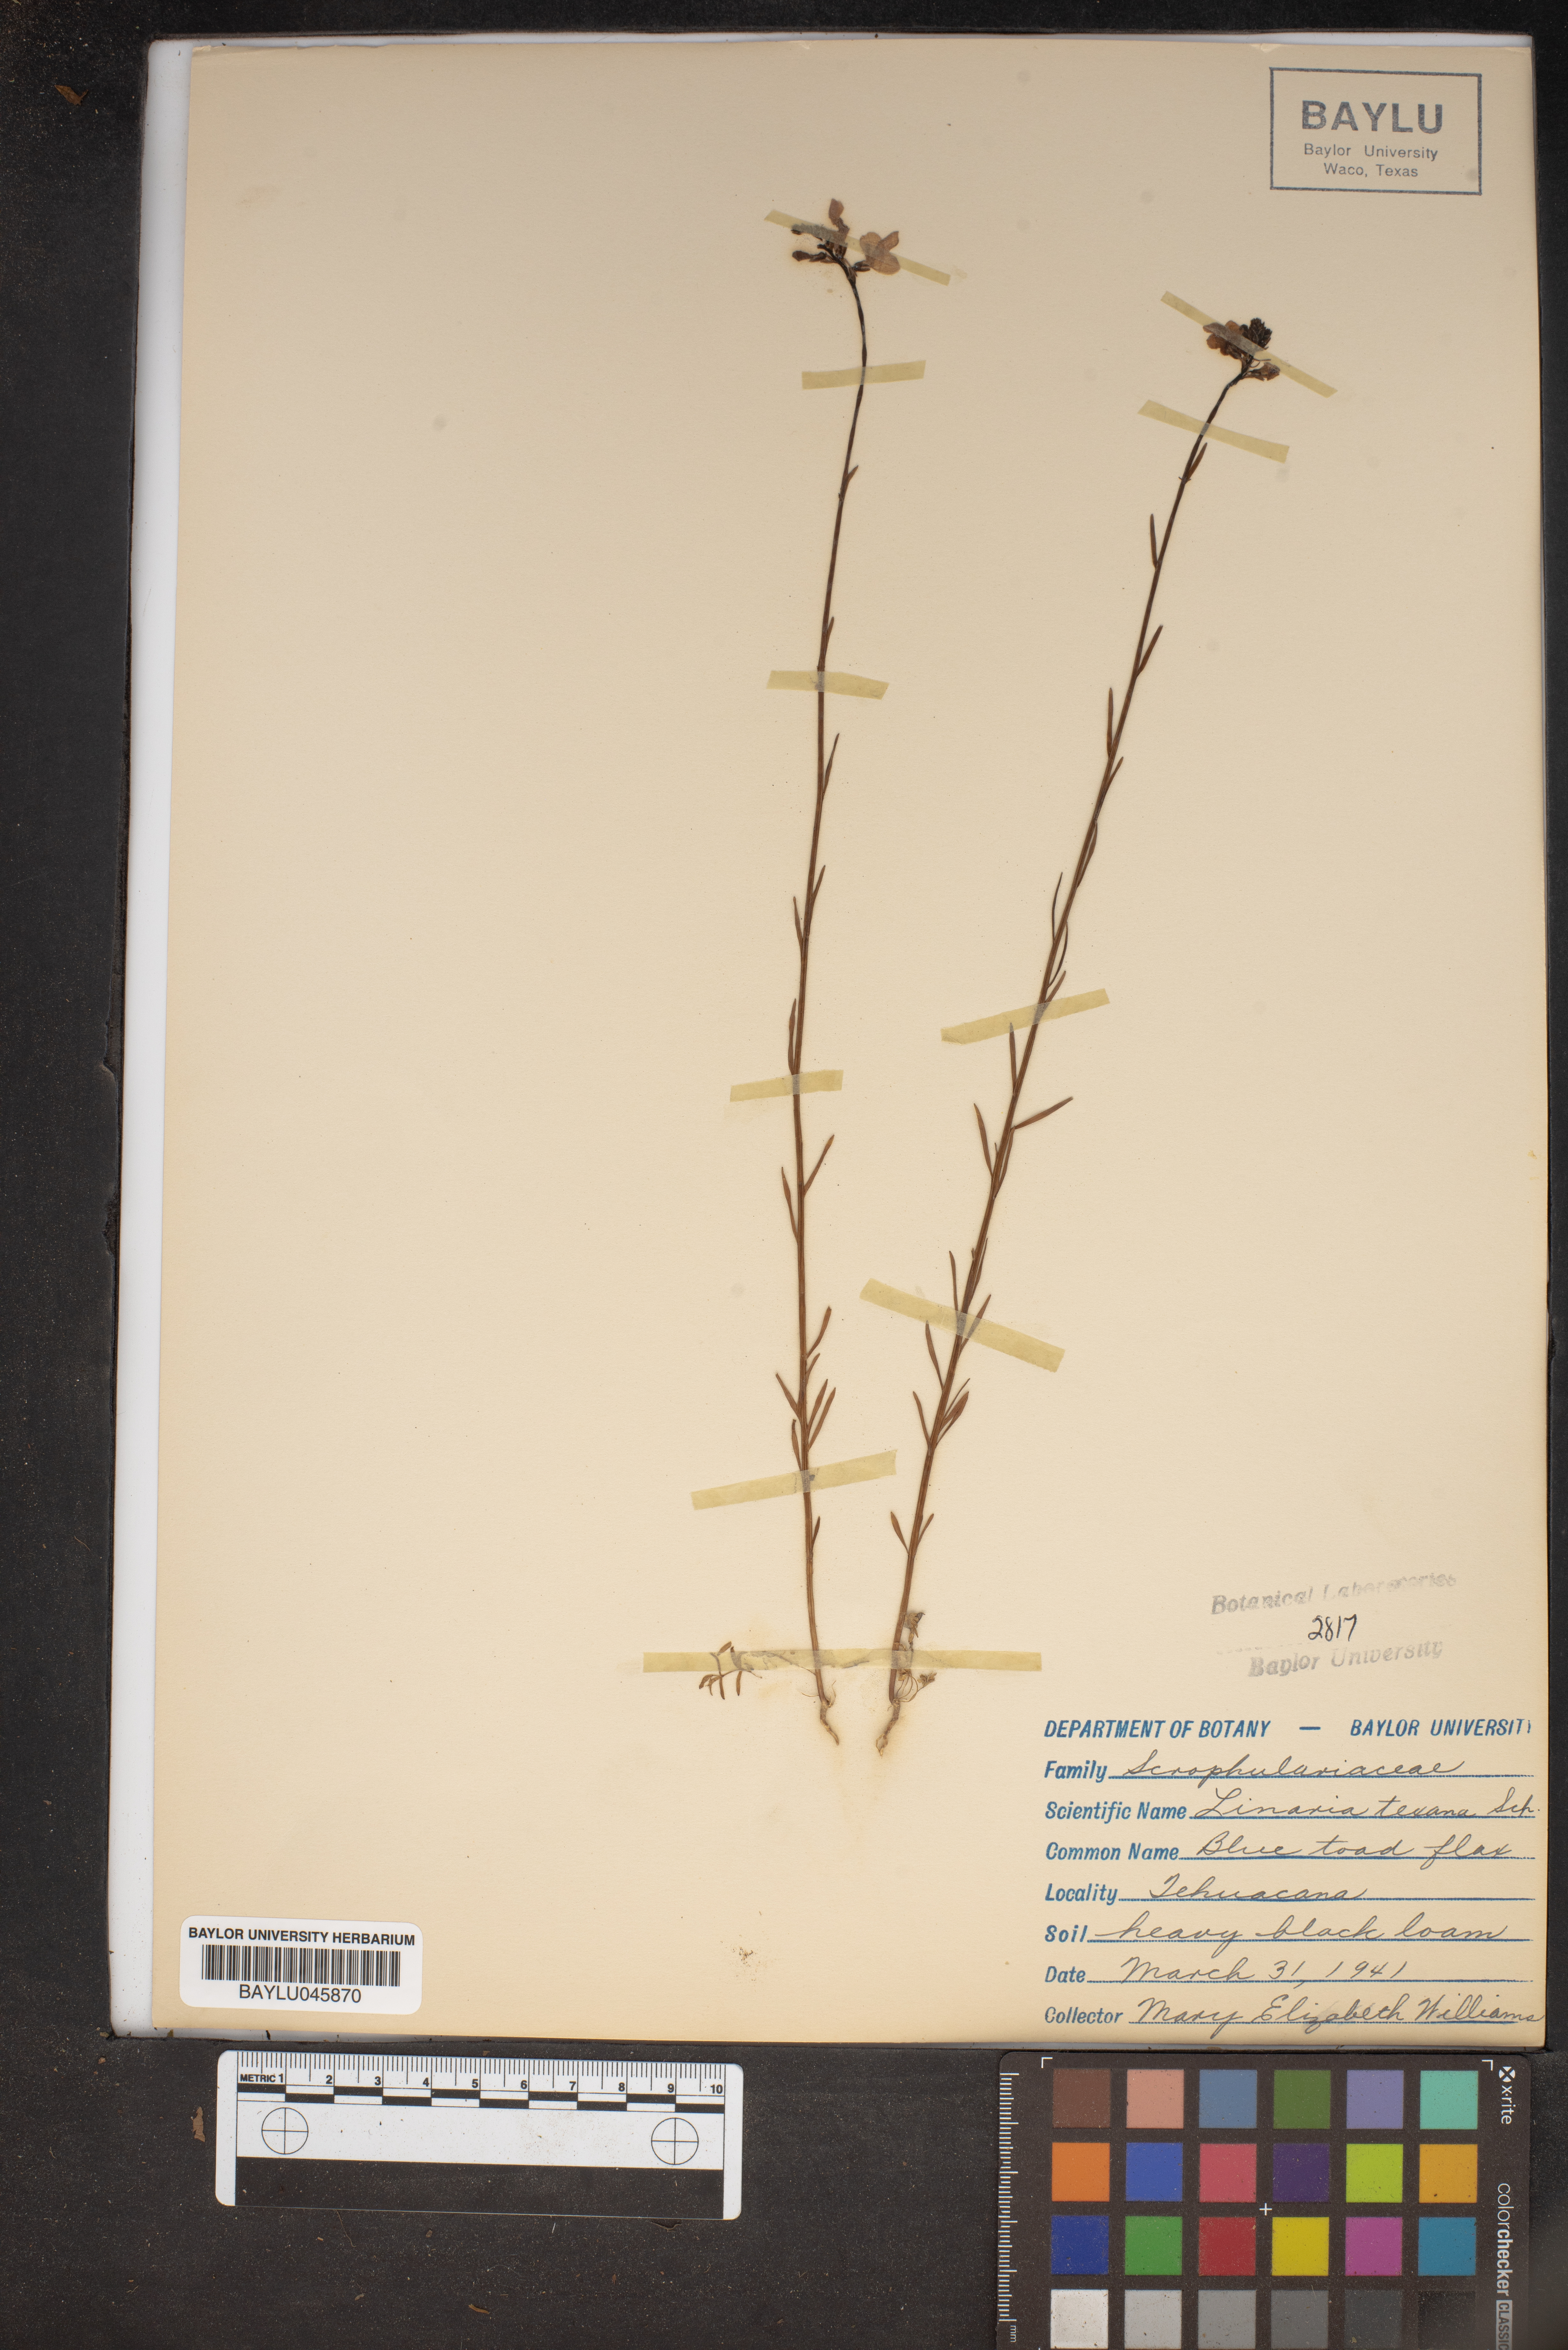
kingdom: Plantae
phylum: Tracheophyta
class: Magnoliopsida
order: Lamiales
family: Plantaginaceae
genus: Nuttallanthus
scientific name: Nuttallanthus texanus
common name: Texas toadflax
